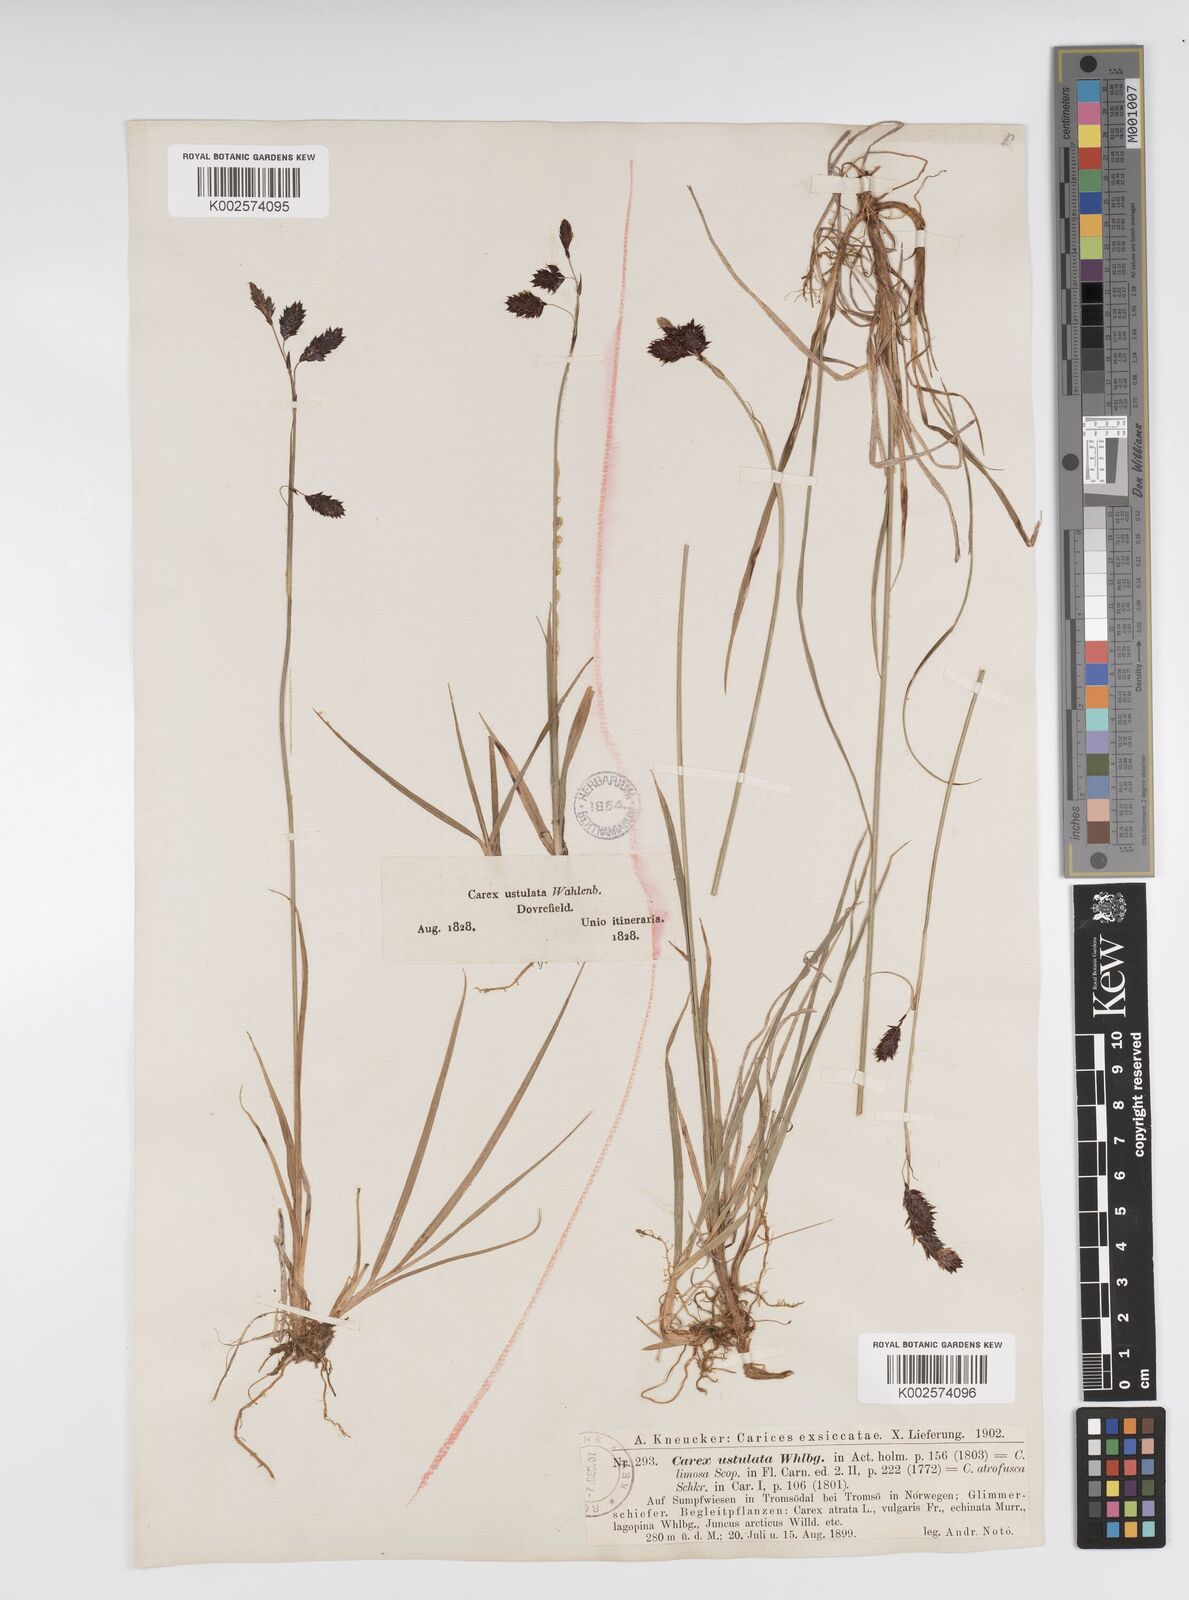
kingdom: Plantae
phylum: Tracheophyta
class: Liliopsida
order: Poales
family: Cyperaceae
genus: Carex
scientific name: Carex atrofusca
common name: Scorched alpine-sedge
